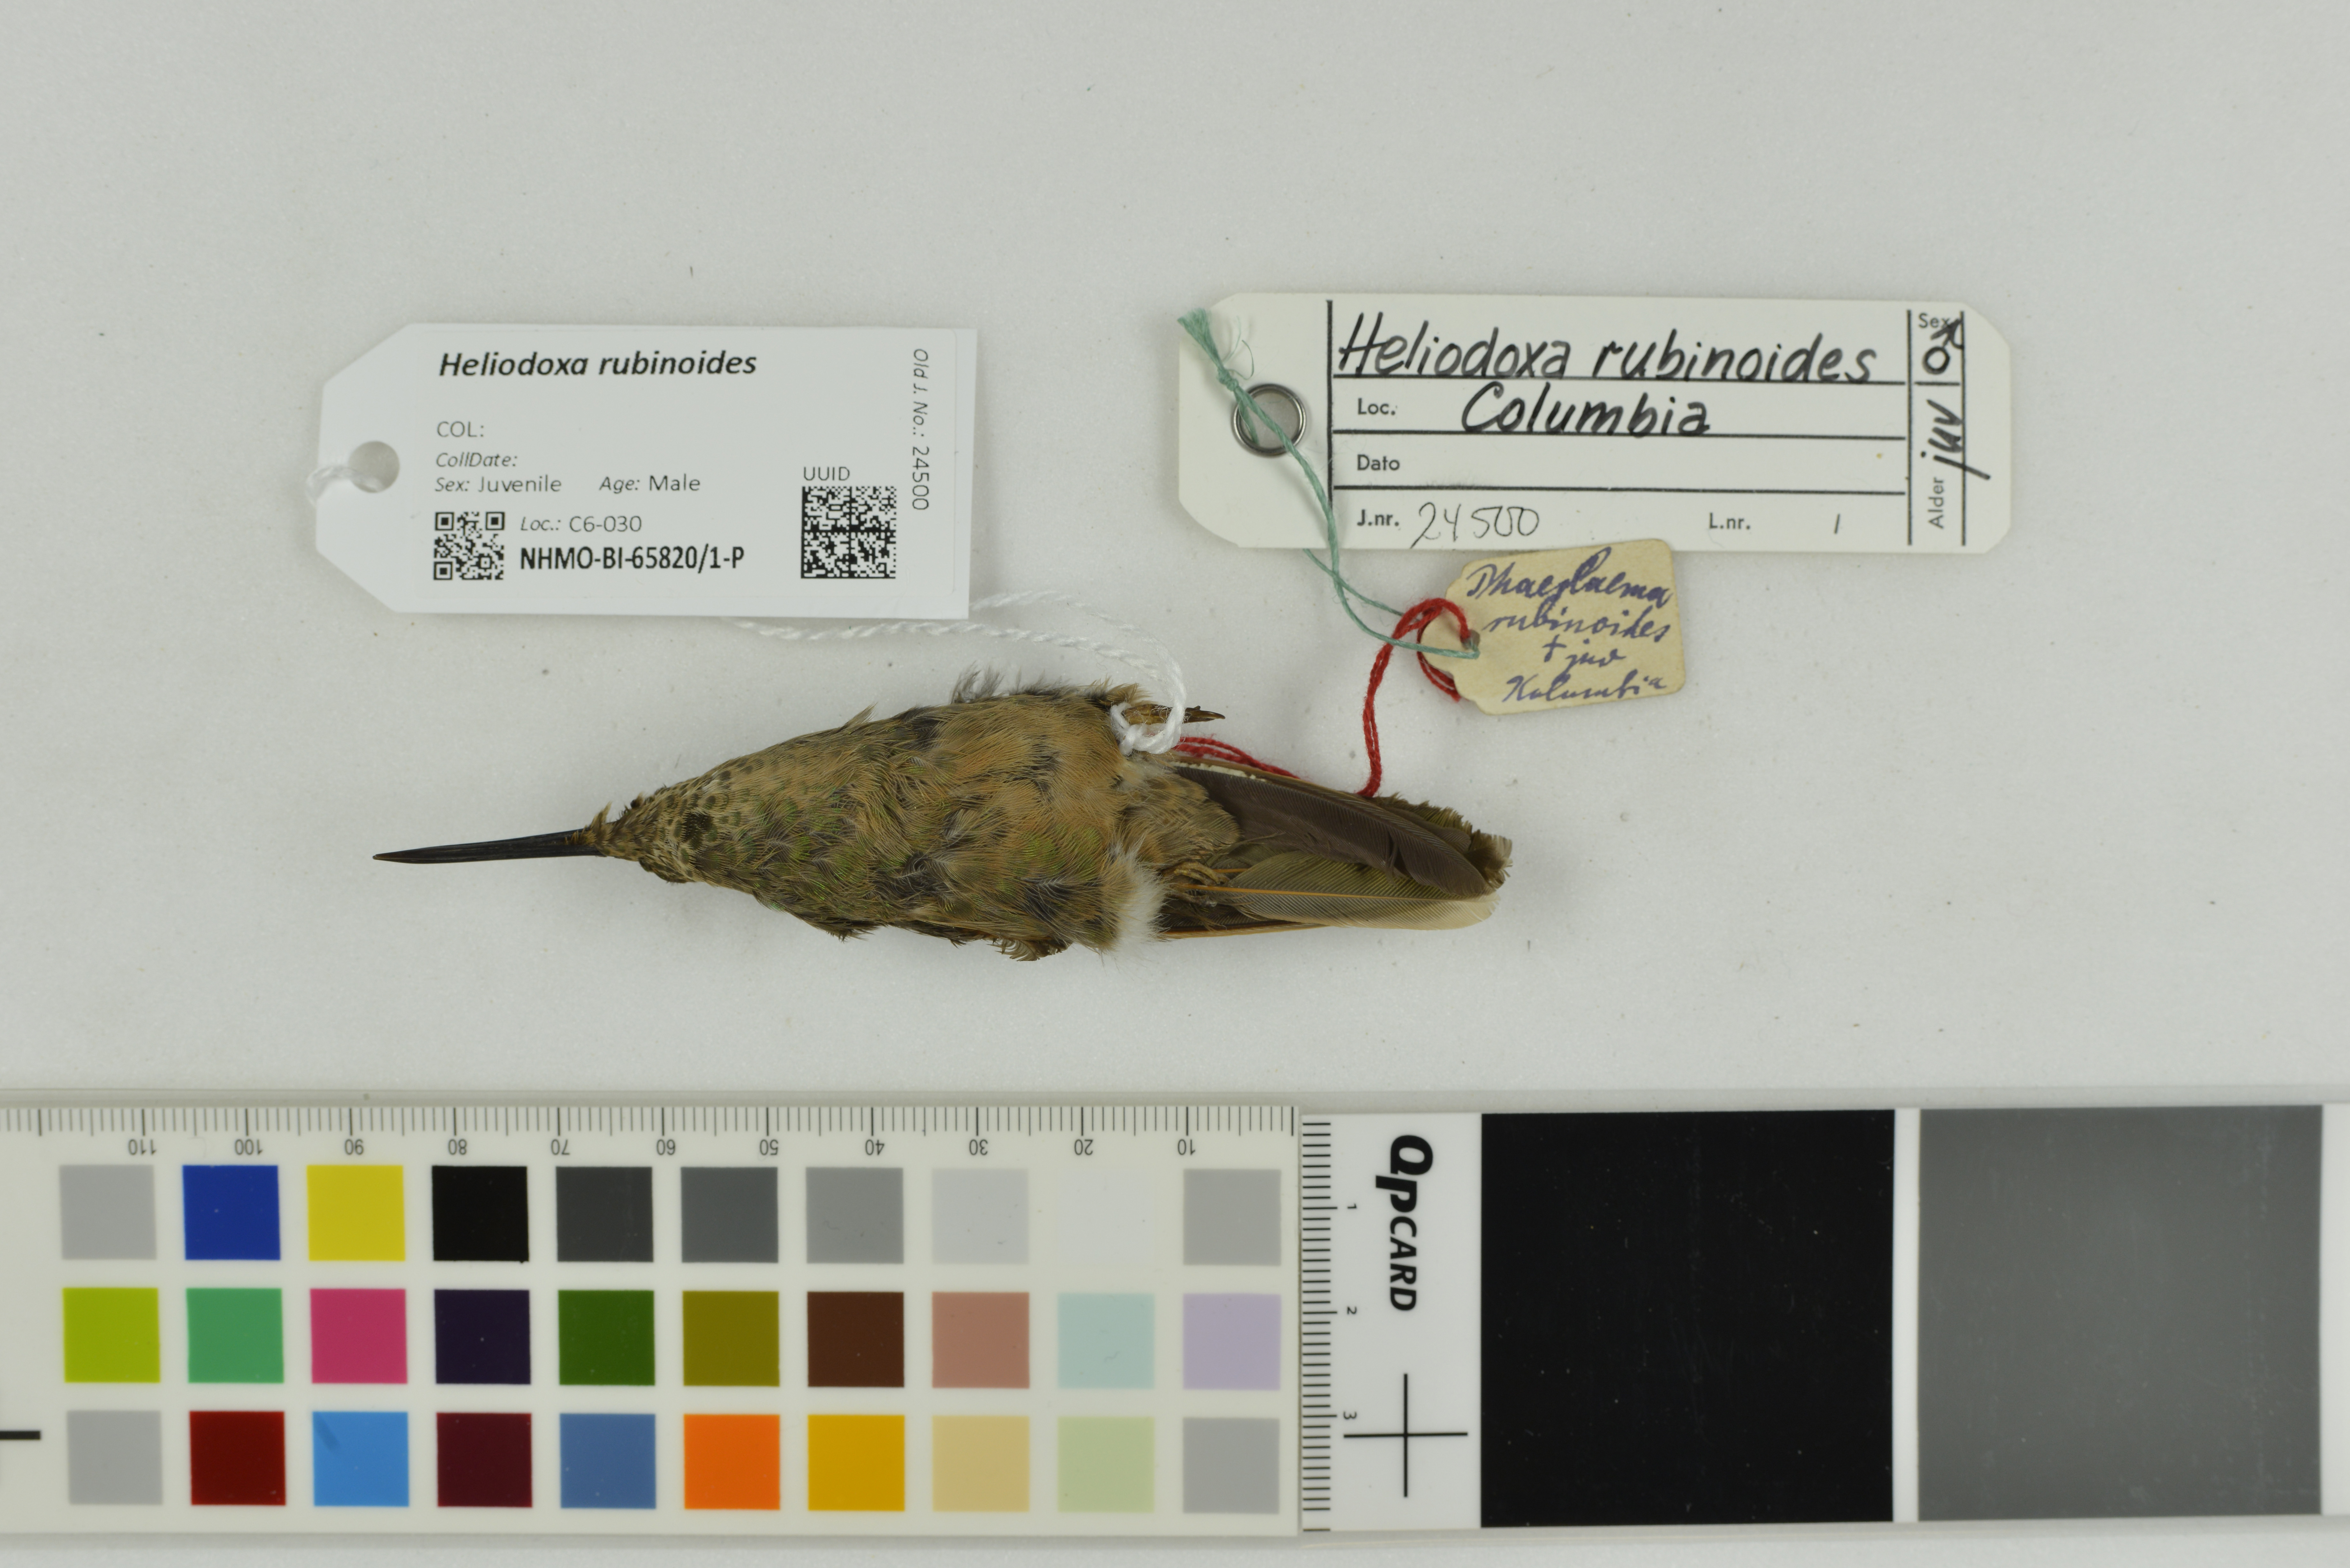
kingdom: Animalia
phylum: Chordata
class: Aves
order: Apodiformes
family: Trochilidae
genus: Heliodoxa
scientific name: Heliodoxa rubinoides
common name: Fawn-breasted brilliant
